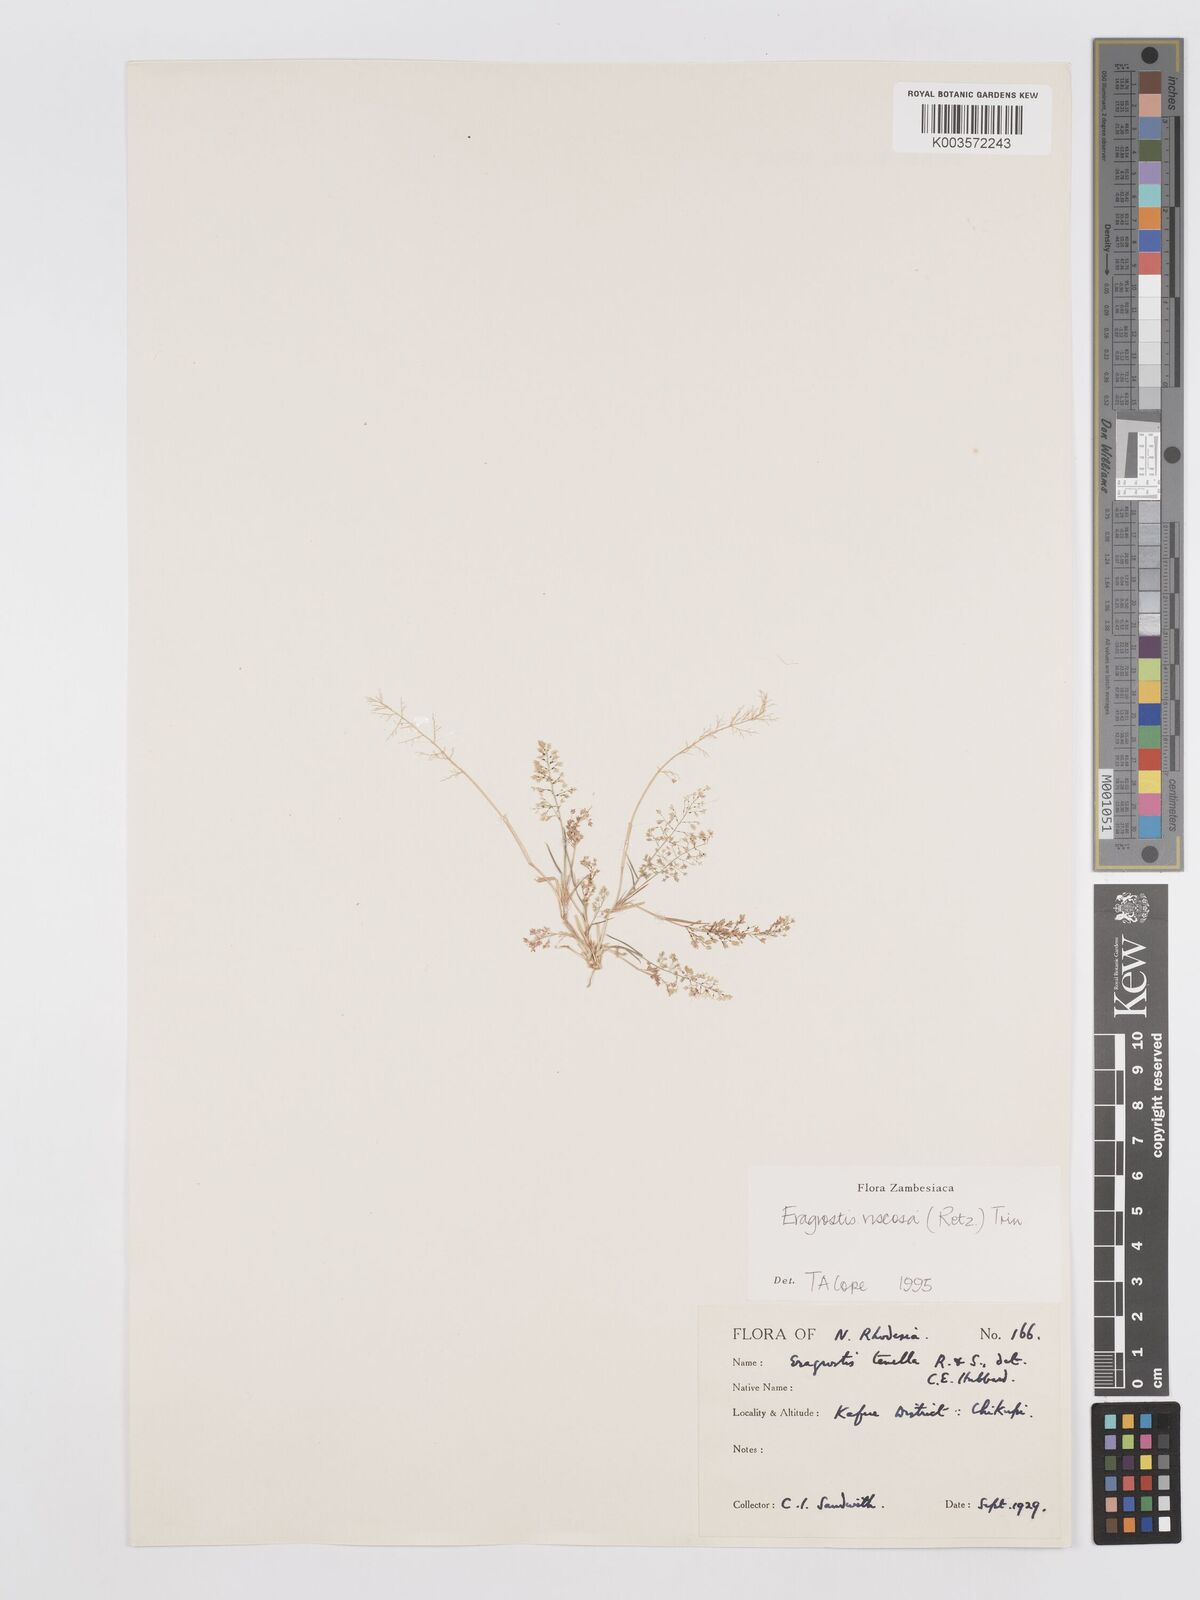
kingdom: Plantae
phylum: Tracheophyta
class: Liliopsida
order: Poales
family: Poaceae
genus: Eragrostis
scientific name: Eragrostis
